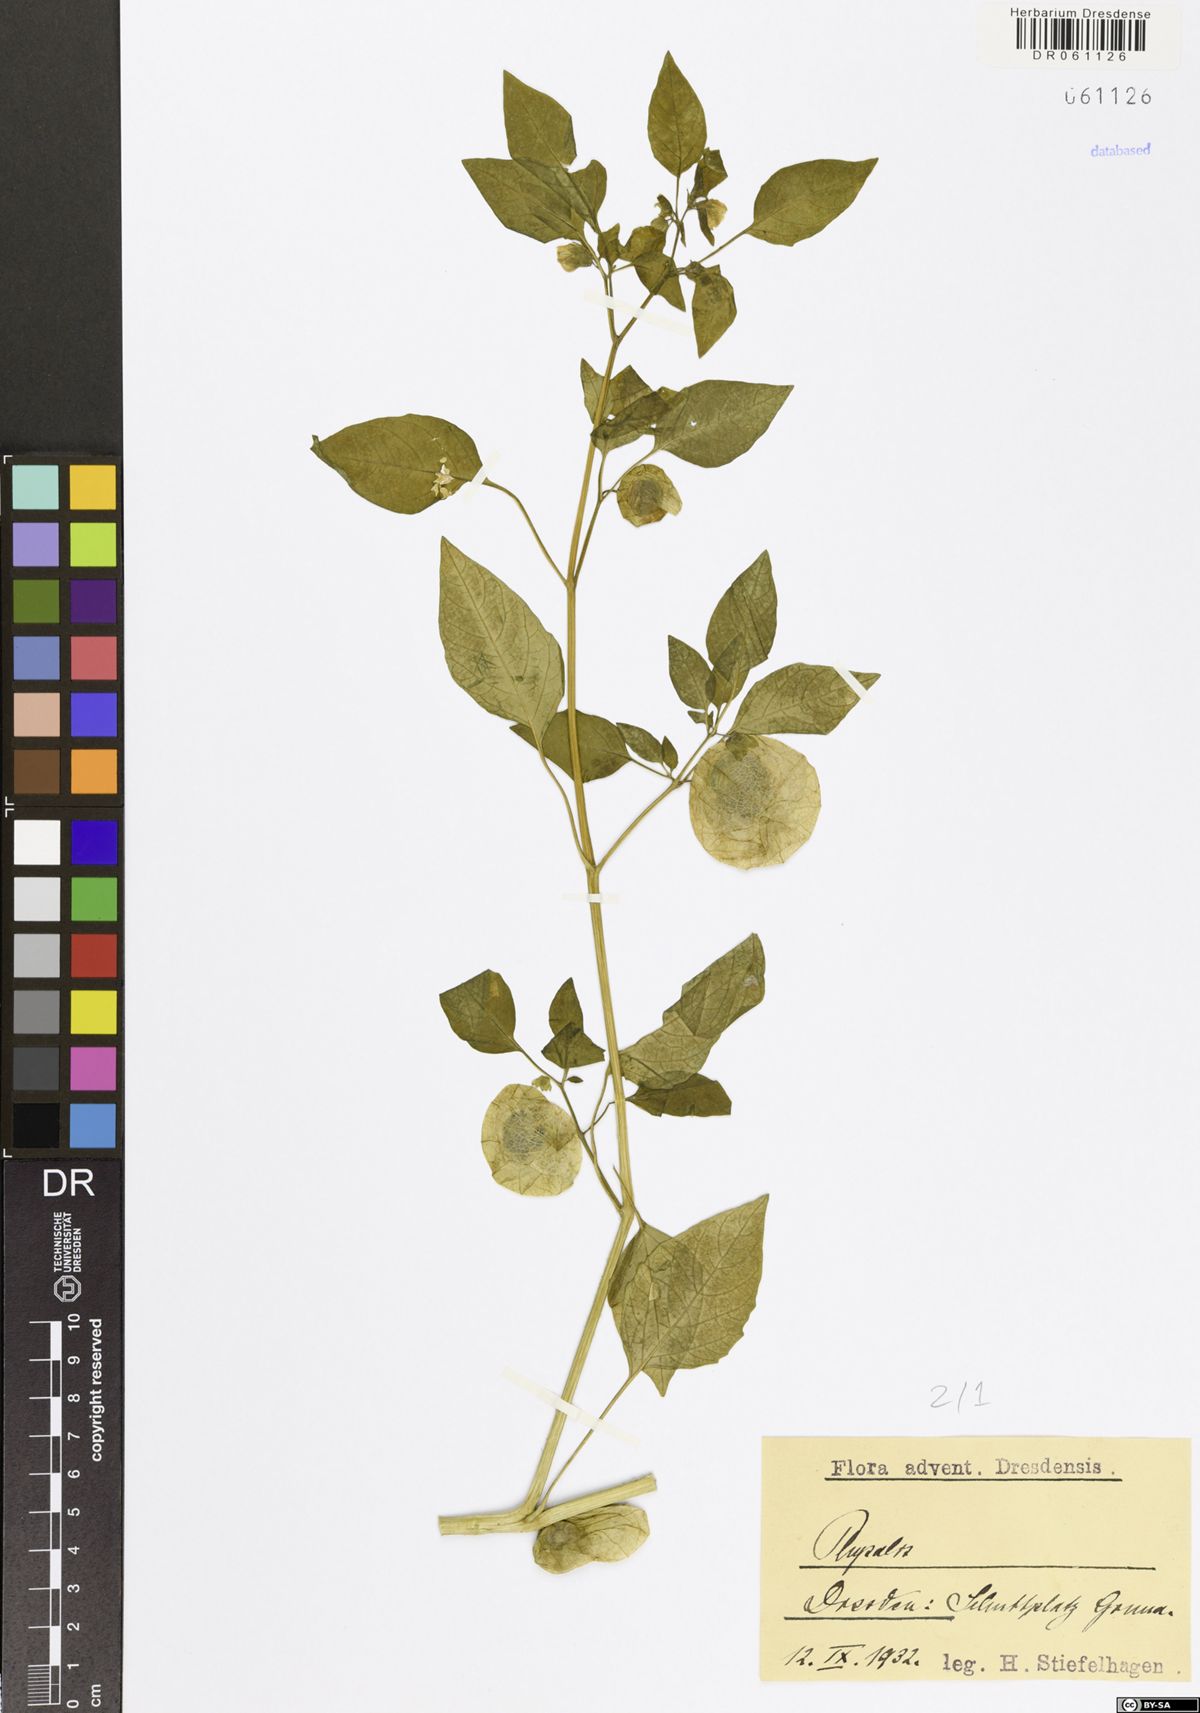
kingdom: Plantae
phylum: Tracheophyta
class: Magnoliopsida
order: Solanales
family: Solanaceae
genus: Physalis
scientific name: Physalis
